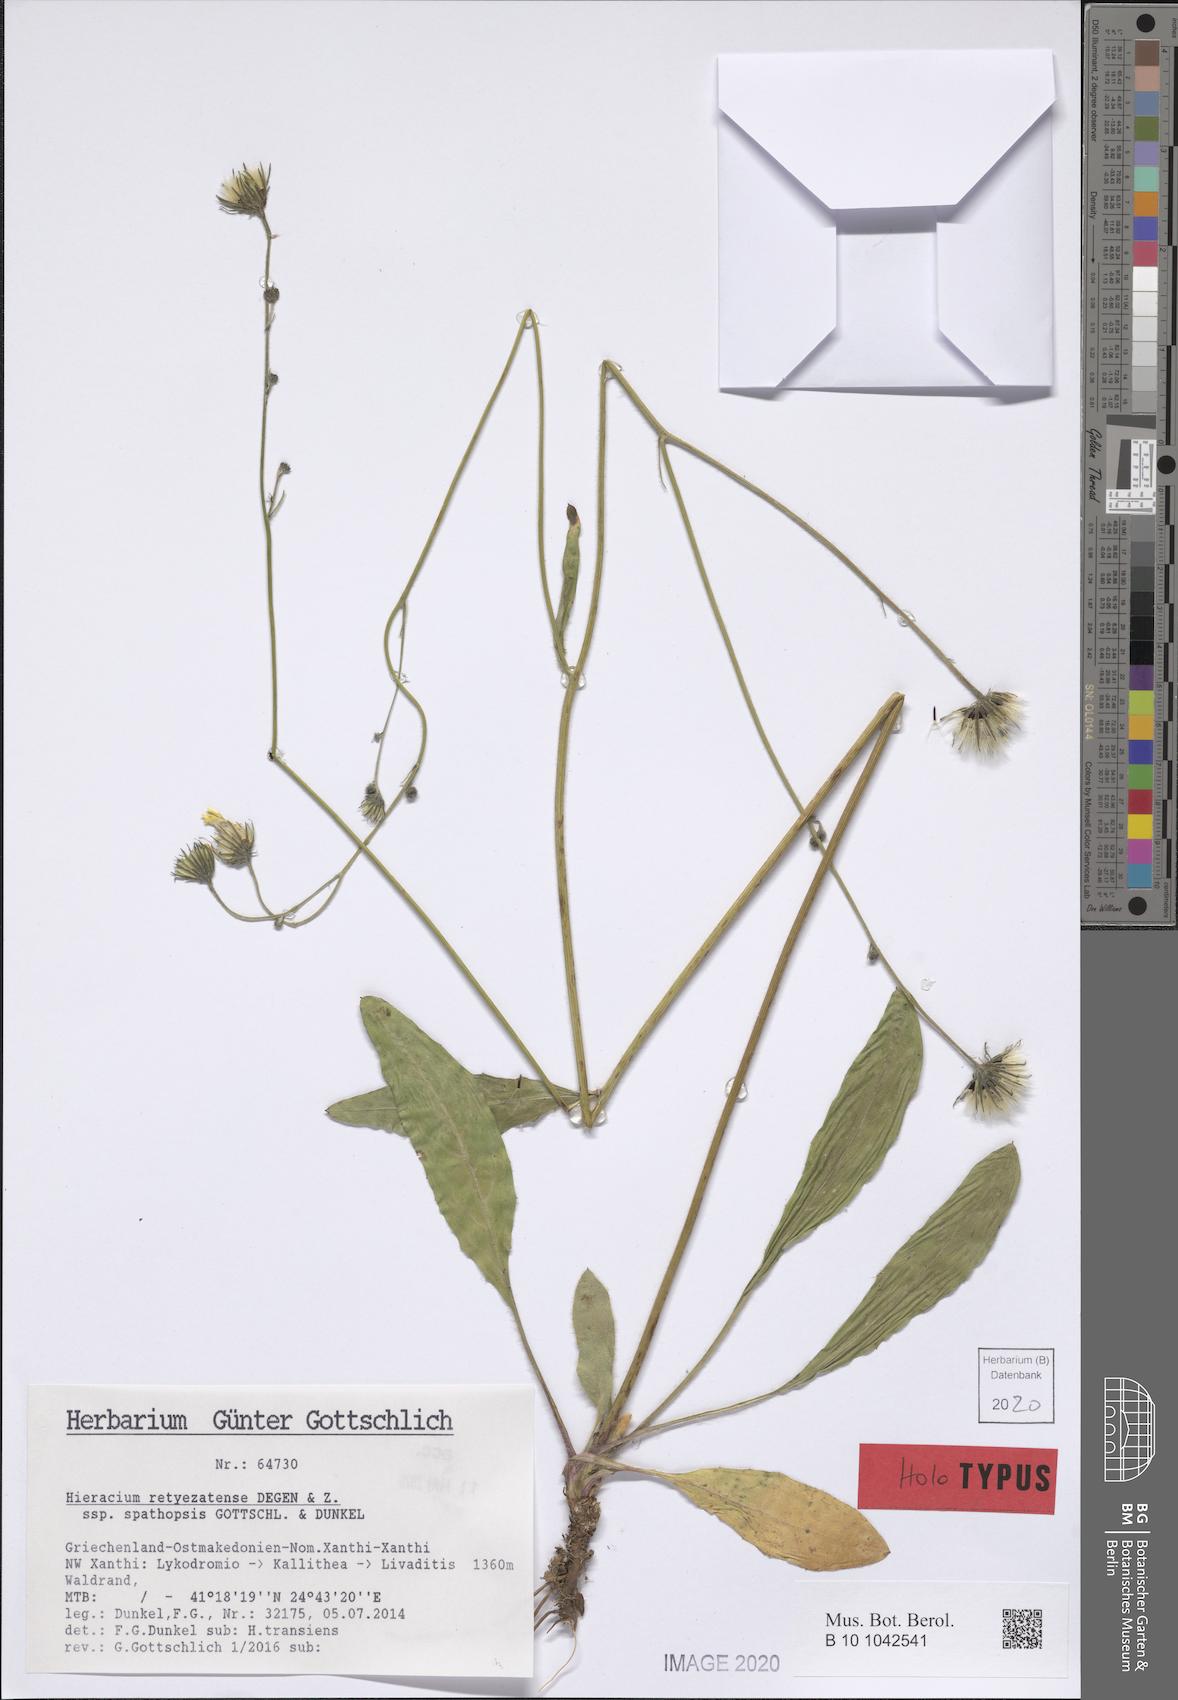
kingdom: Plantae
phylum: Tracheophyta
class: Magnoliopsida
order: Asterales
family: Asteraceae
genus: Hieracium
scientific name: Hieracium retyezatense
